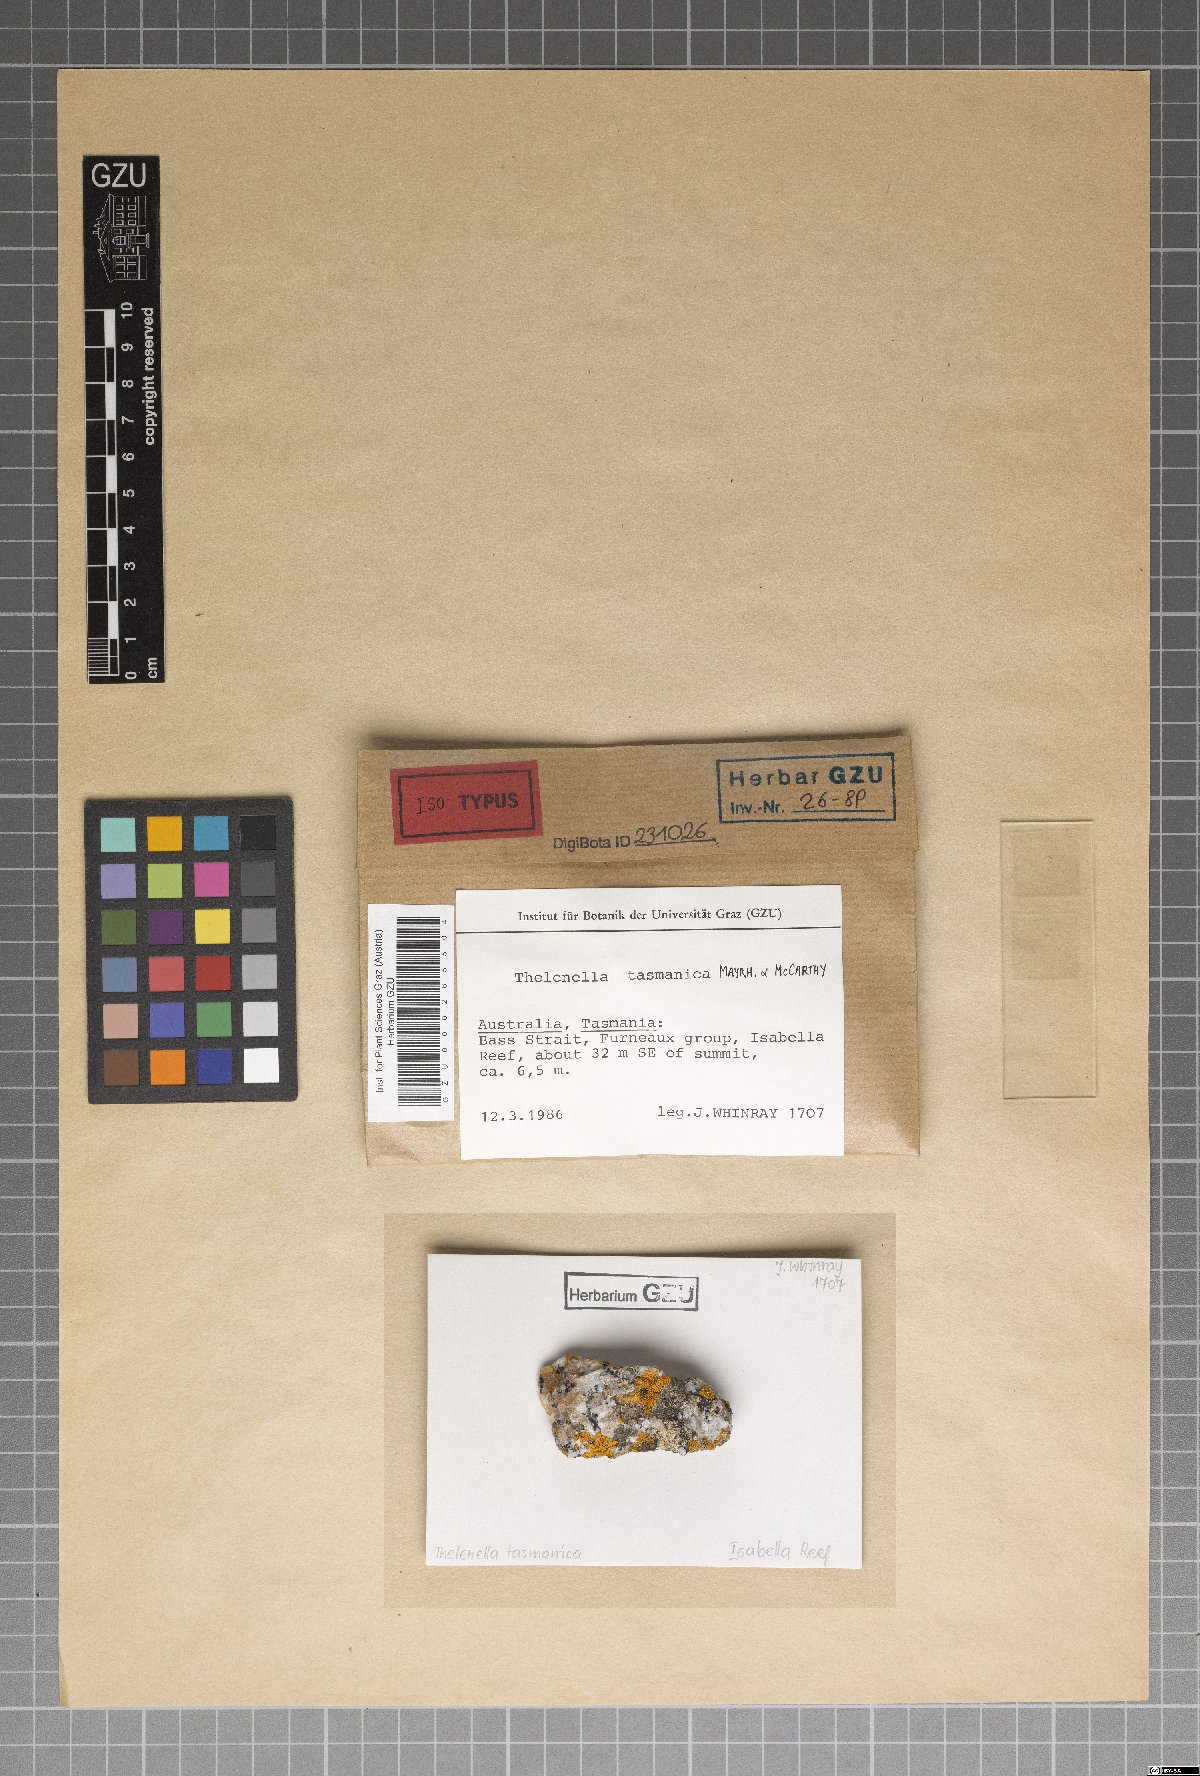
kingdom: Fungi
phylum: Ascomycota
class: Lecanoromycetes
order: Ostropales
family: Thelenellaceae
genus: Thelenella
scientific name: Thelenella tasmanica
